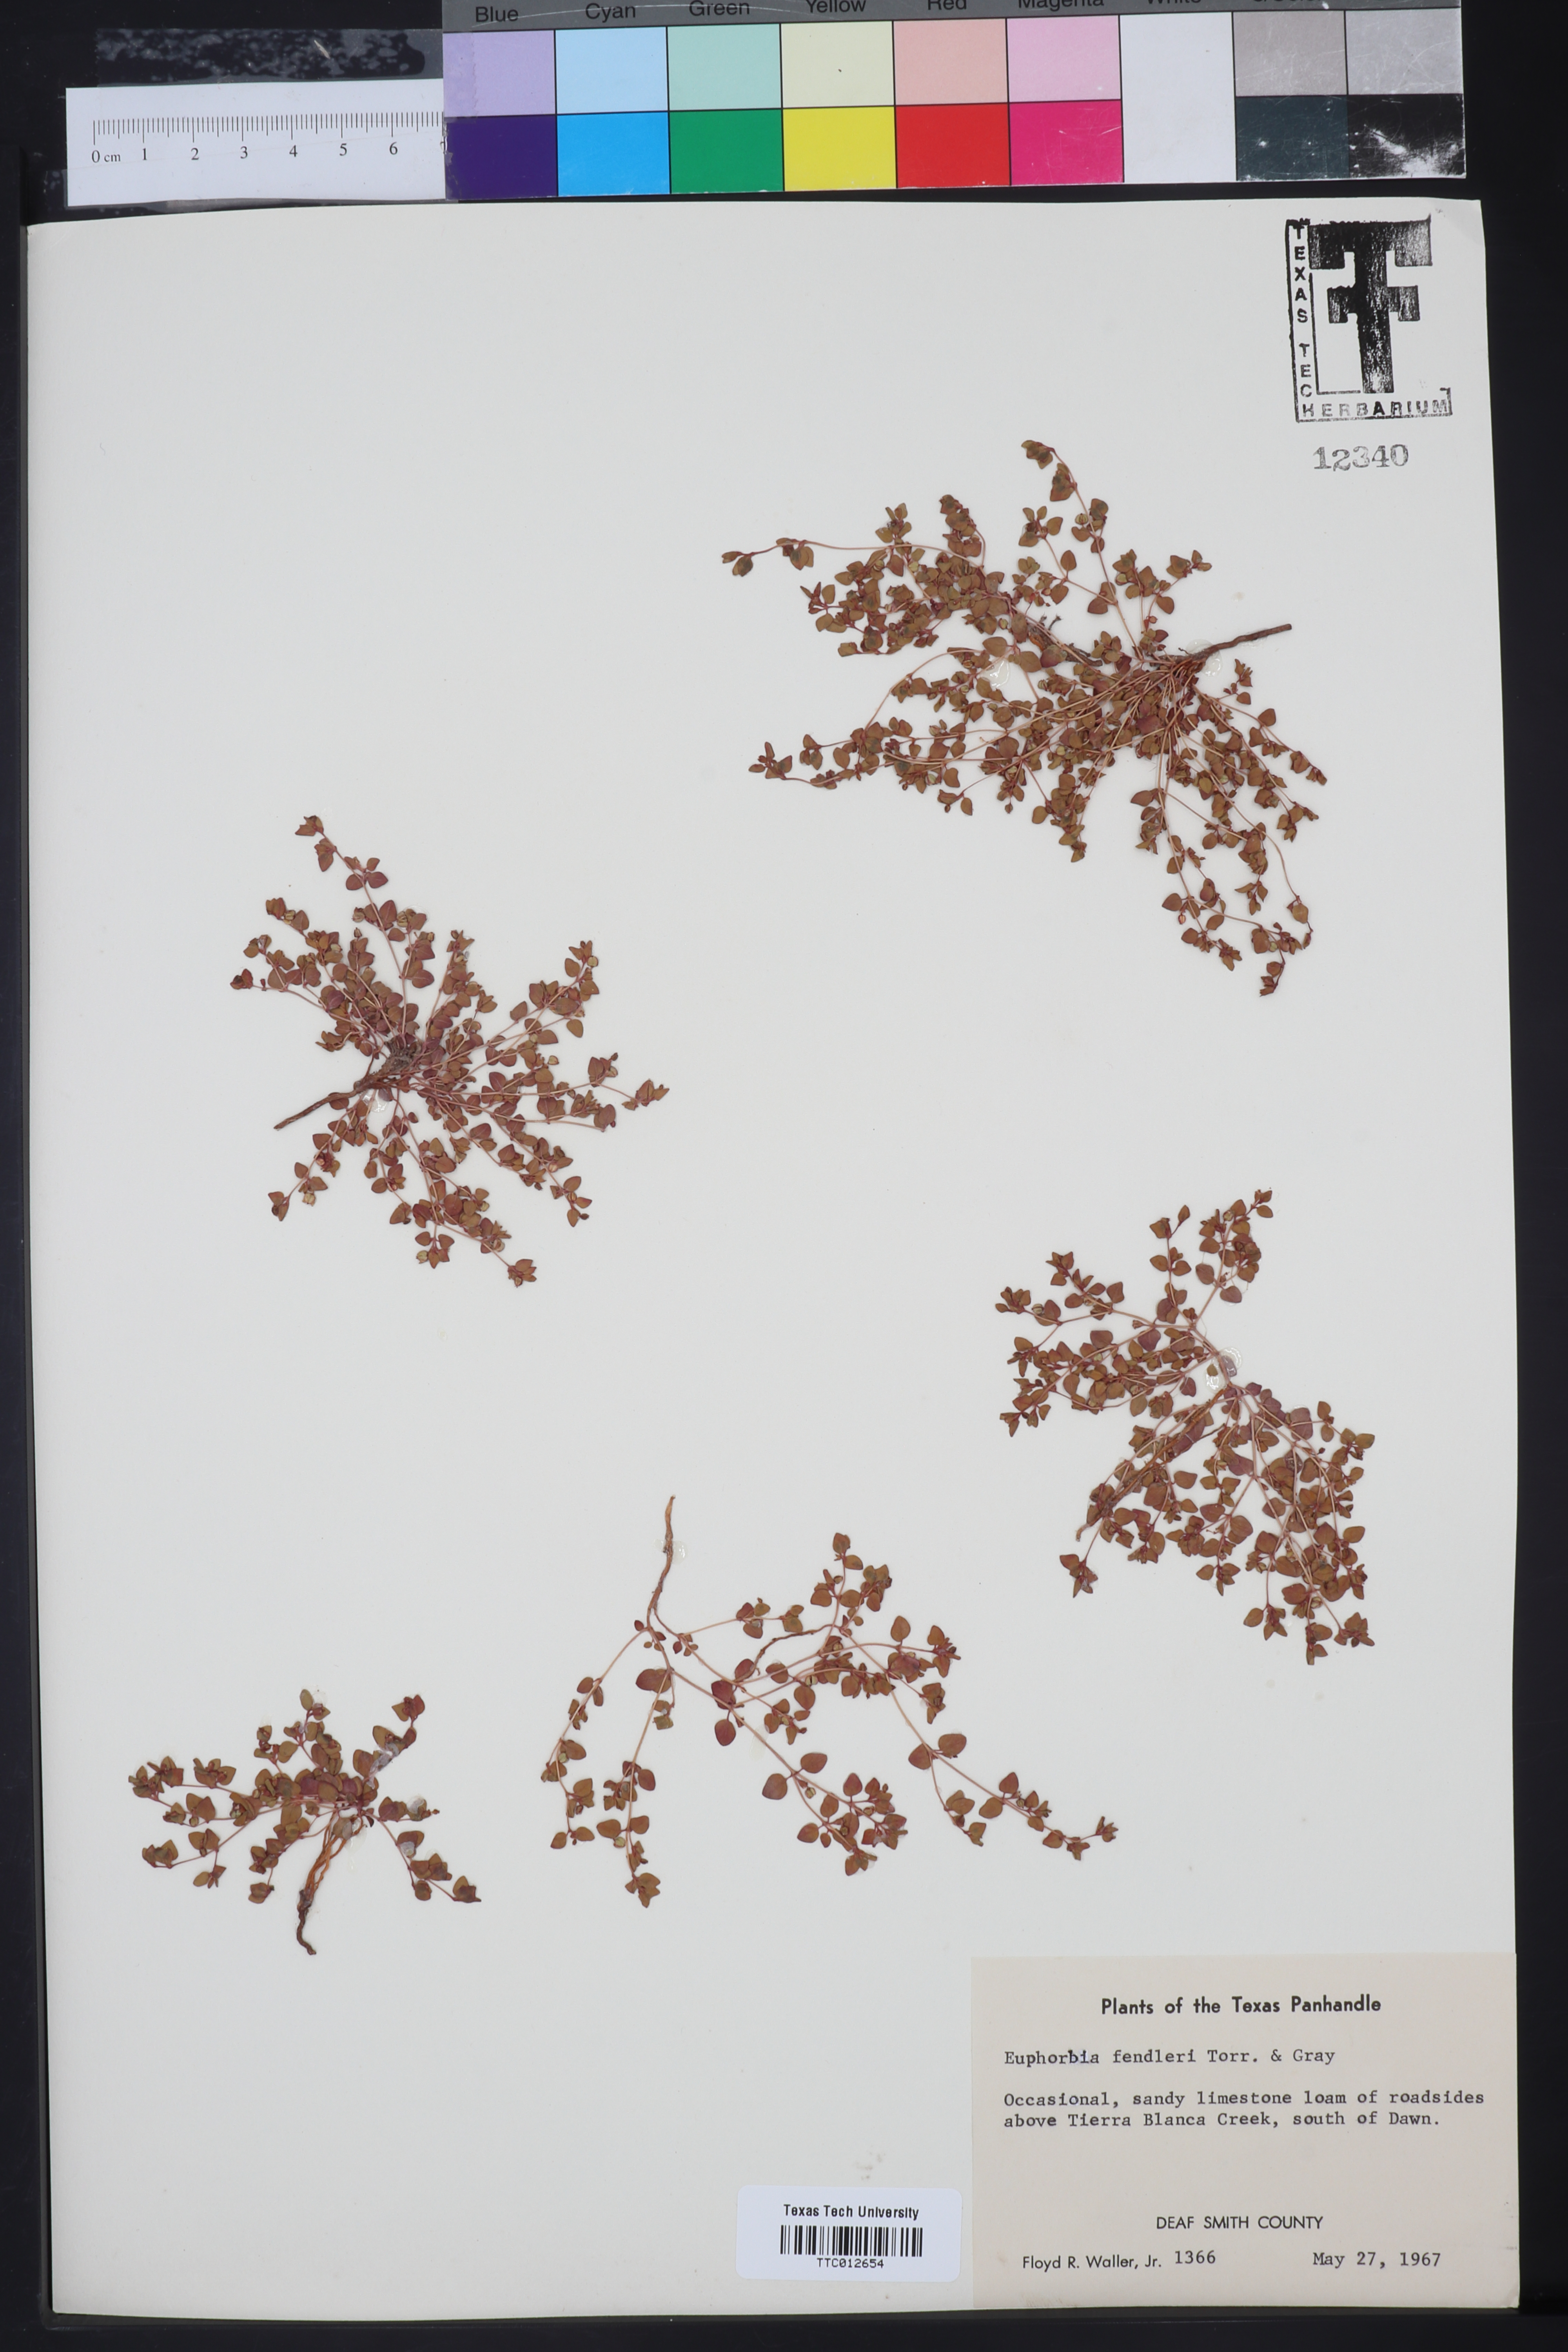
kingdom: Plantae
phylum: Tracheophyta
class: Magnoliopsida
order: Malpighiales
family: Euphorbiaceae
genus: Euphorbia
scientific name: Euphorbia fendleri
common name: Fendler's euphorbia
